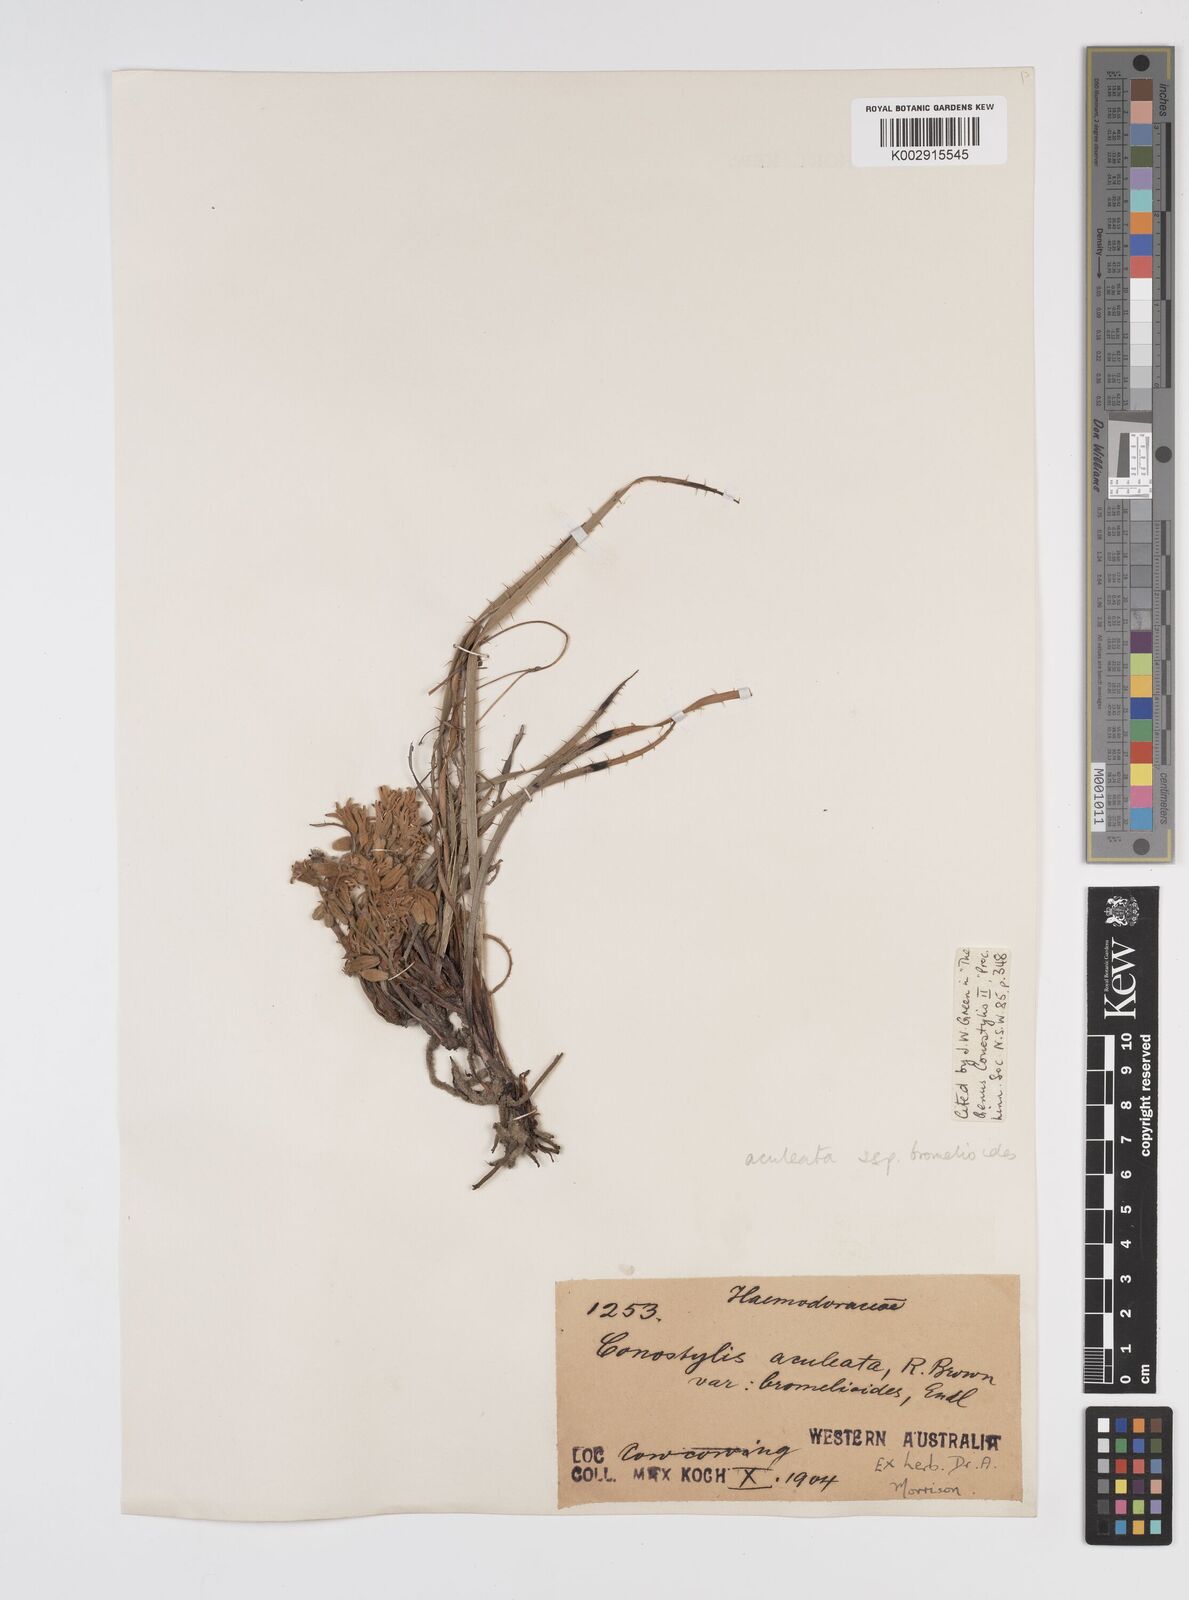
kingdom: Plantae
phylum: Tracheophyta
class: Liliopsida
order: Commelinales
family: Haemodoraceae
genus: Conostylis
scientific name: Conostylis aculeata
